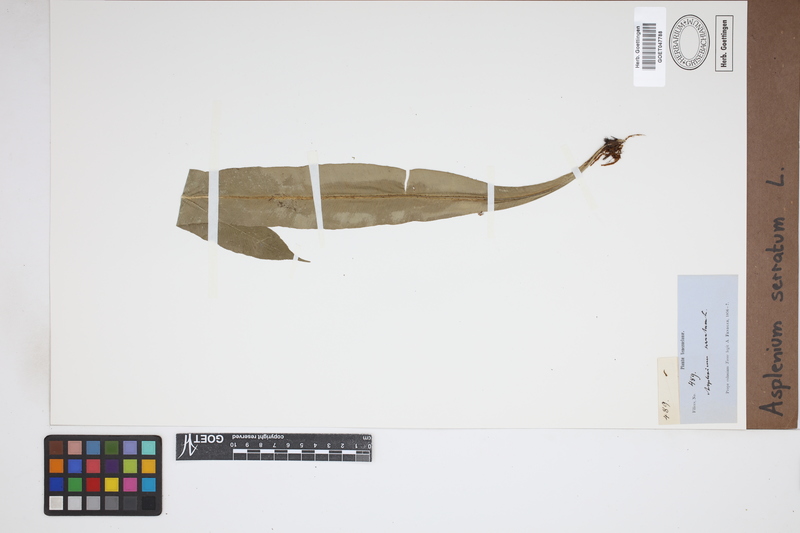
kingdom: Plantae
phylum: Tracheophyta
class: Polypodiopsida
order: Polypodiales
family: Aspleniaceae
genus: Asplenium
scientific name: Asplenium serratum
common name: Wild birdnest fern
